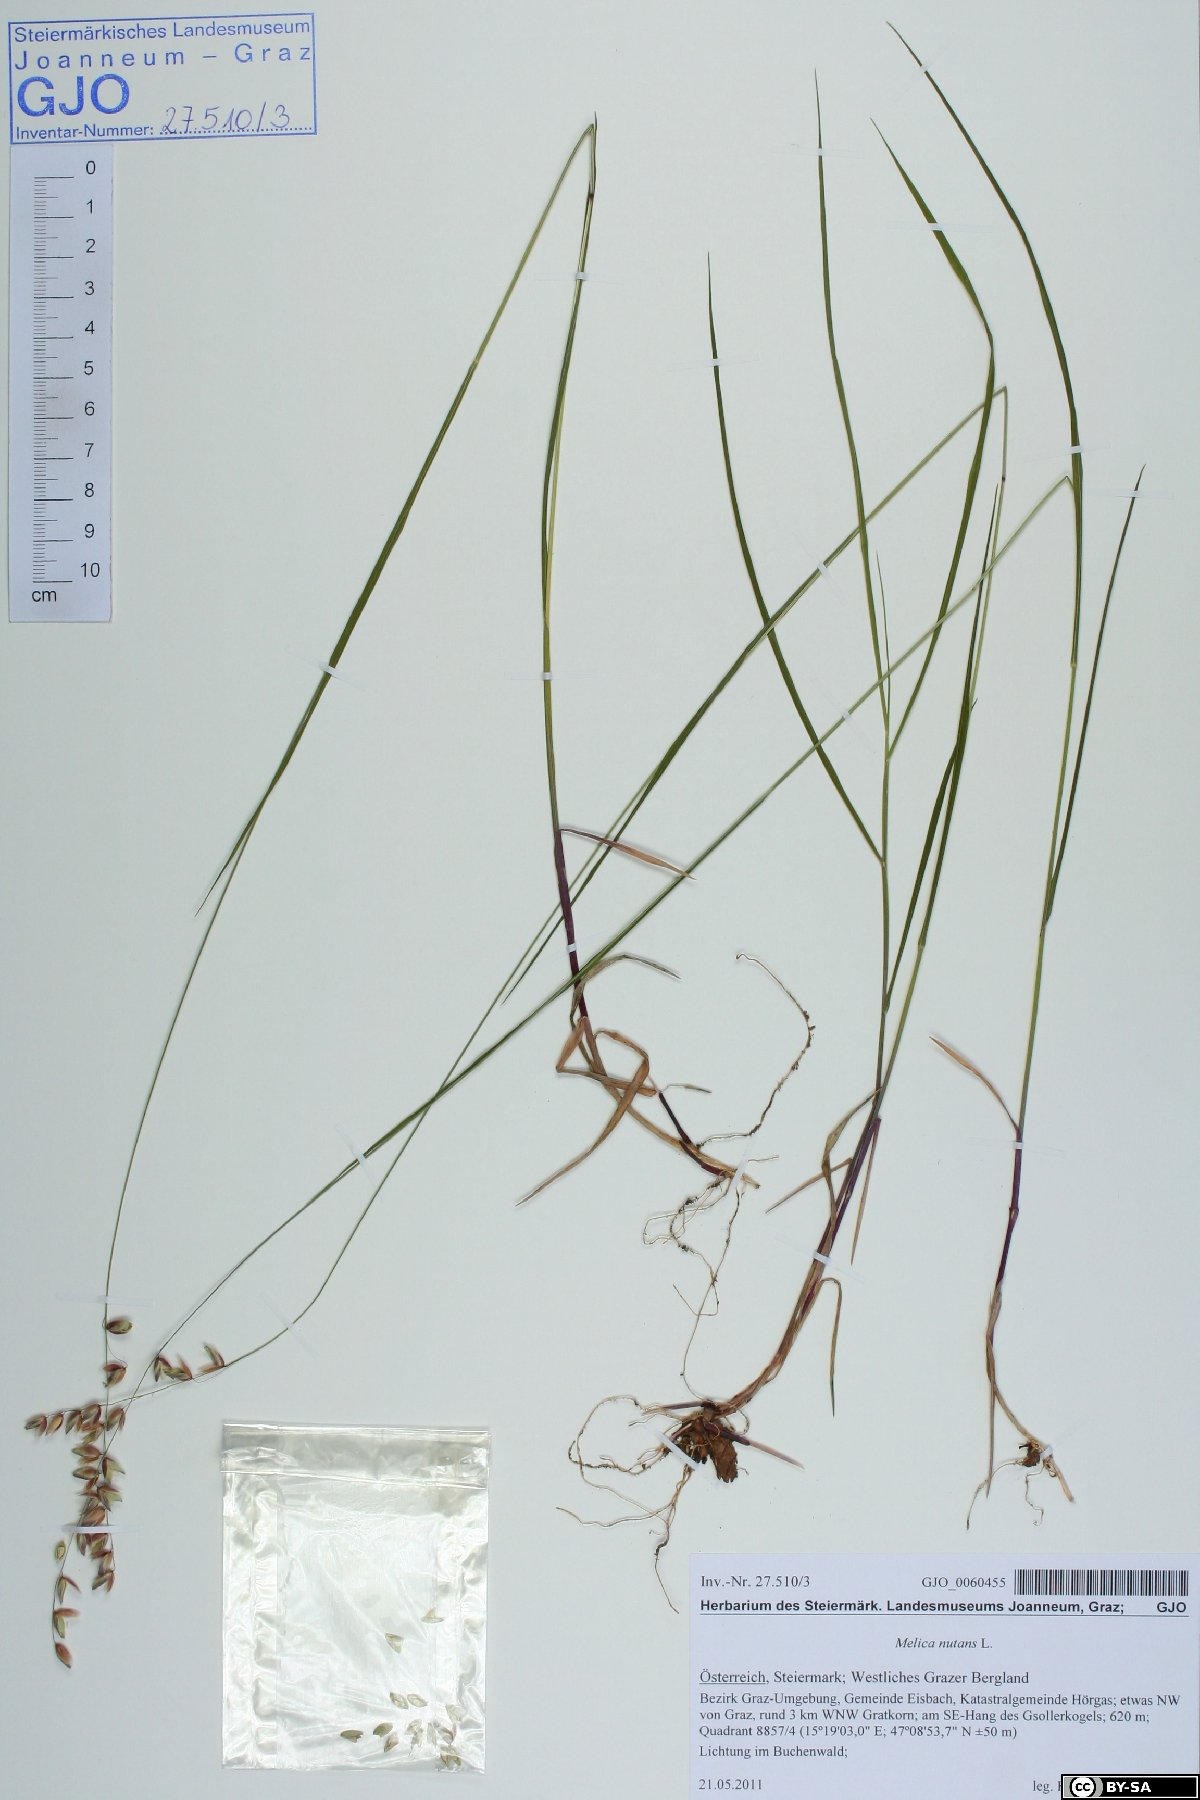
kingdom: Plantae
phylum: Tracheophyta
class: Liliopsida
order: Poales
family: Poaceae
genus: Melica
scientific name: Melica nutans
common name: Mountain melick
